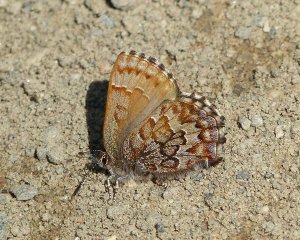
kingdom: Animalia
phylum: Arthropoda
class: Insecta
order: Lepidoptera
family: Lycaenidae
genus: Incisalia
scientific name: Incisalia niphon
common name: Eastern Pine Elfin
